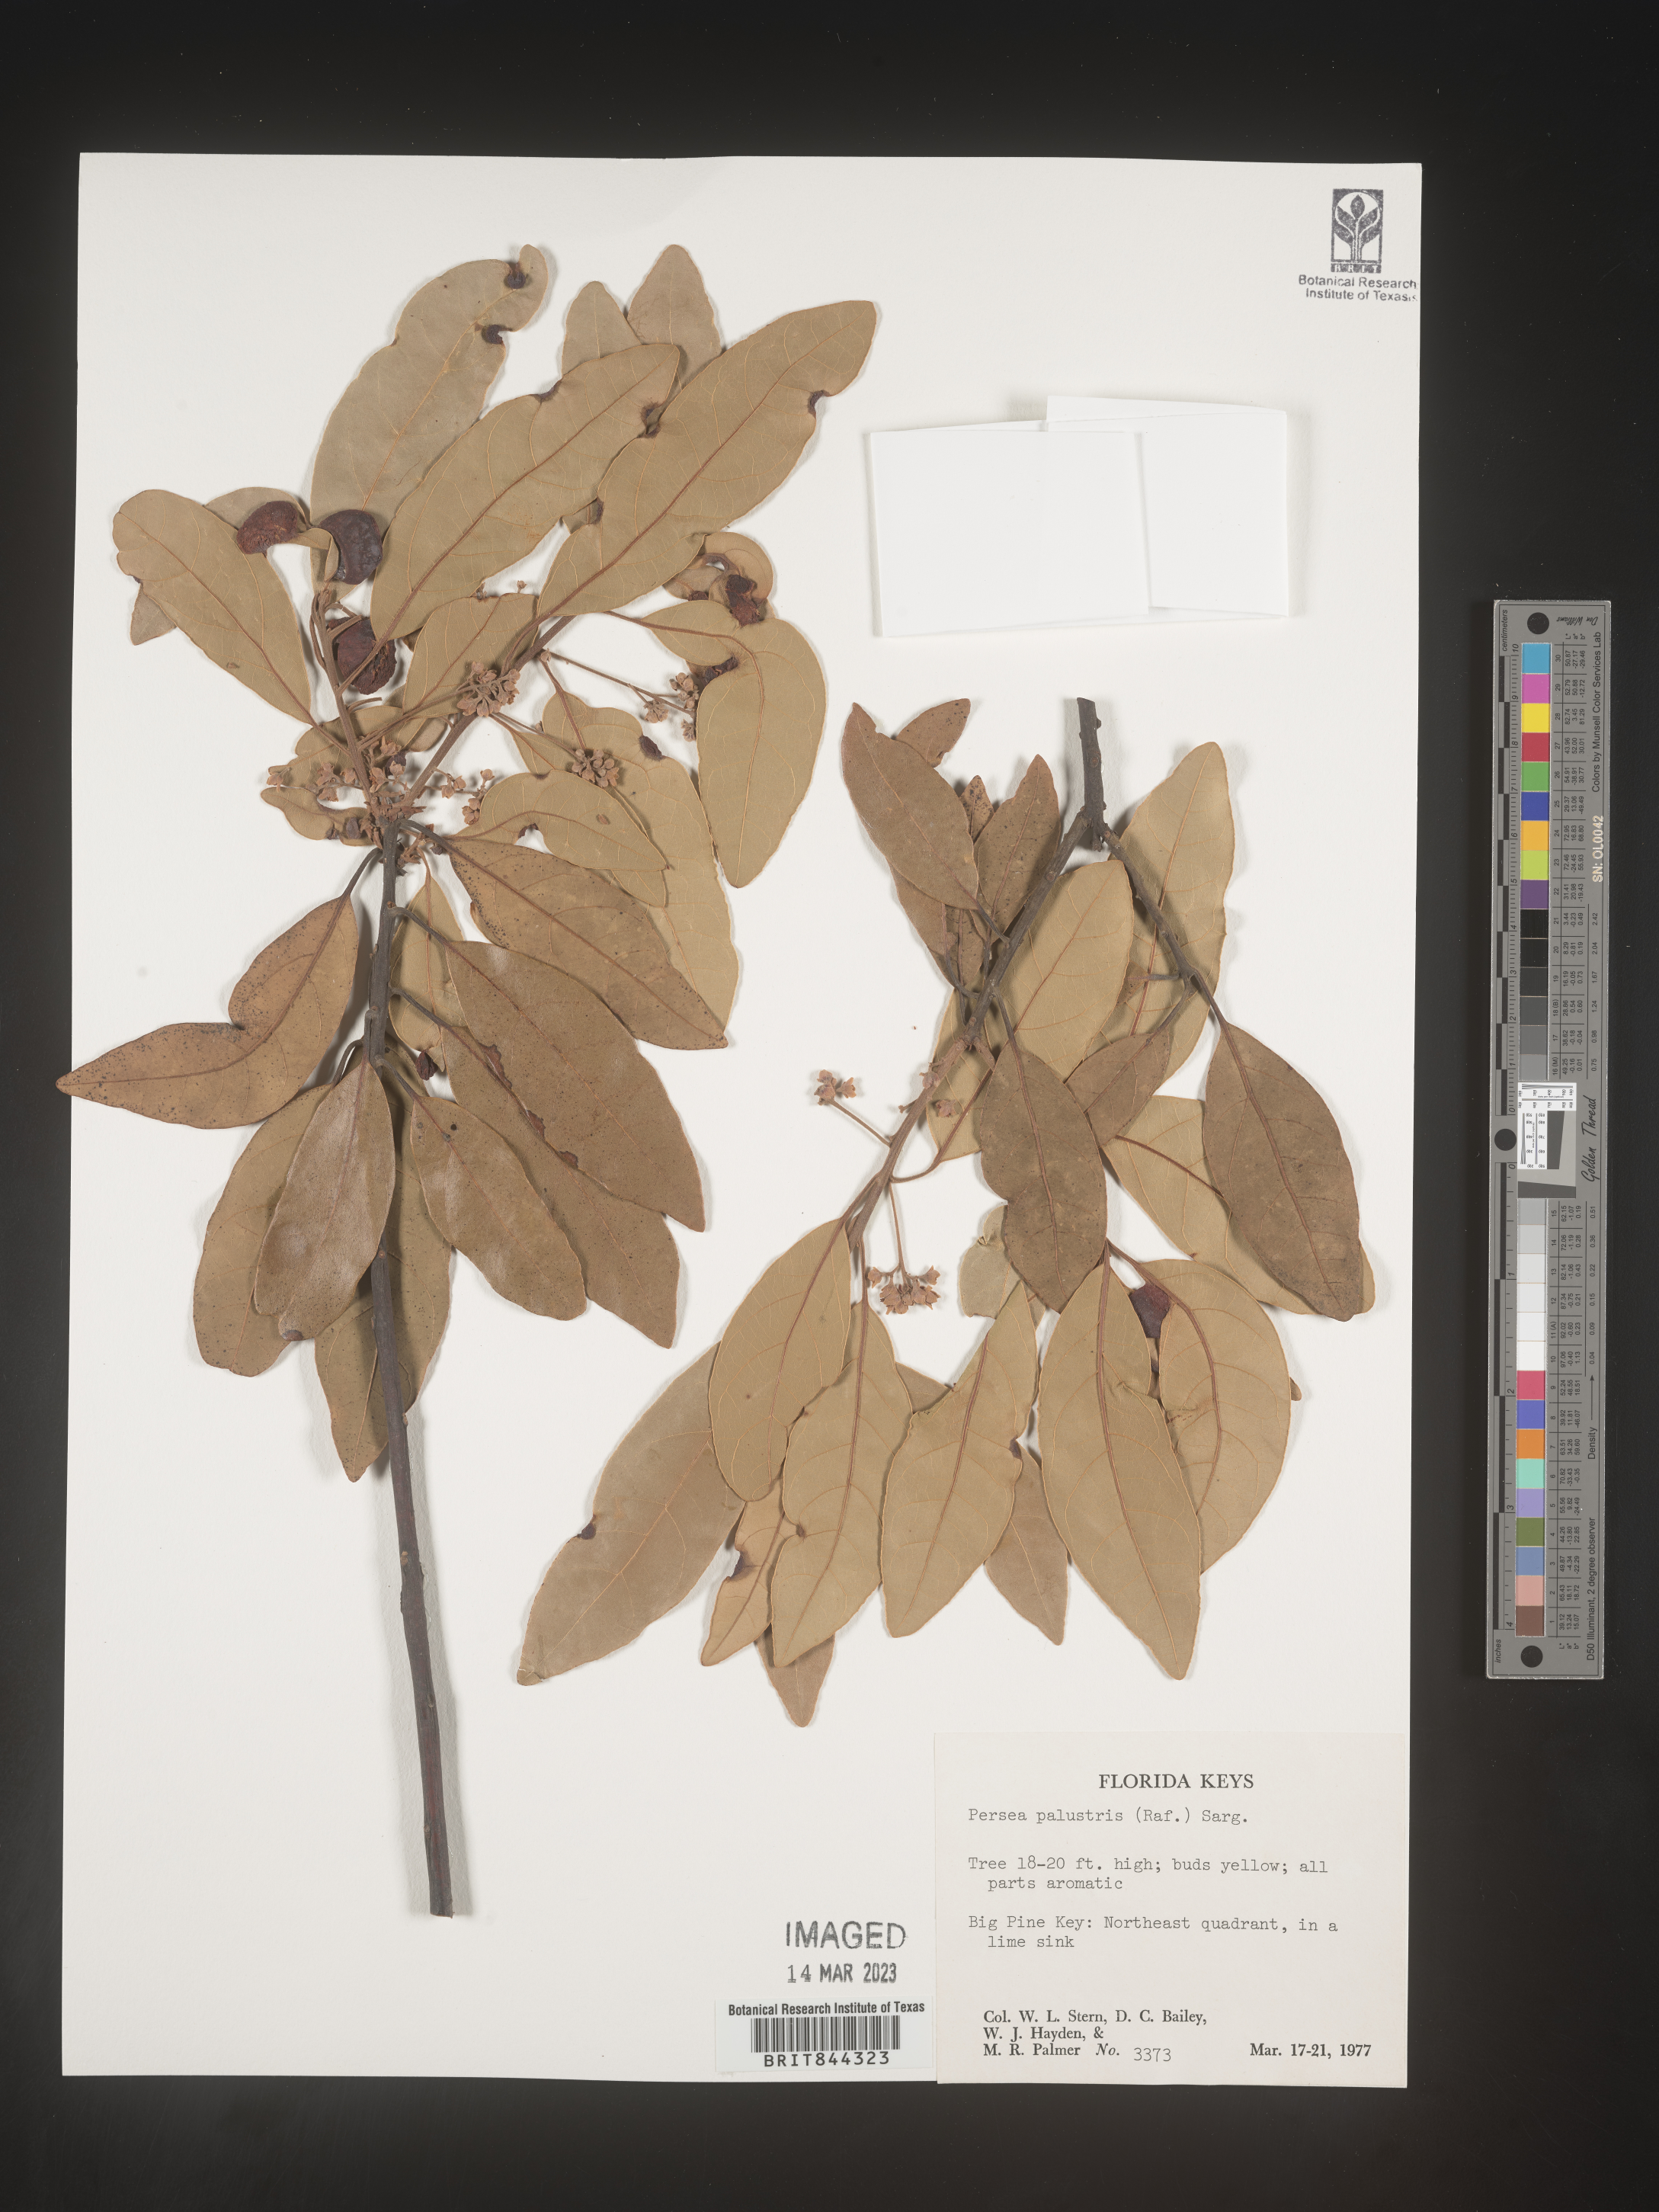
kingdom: Plantae
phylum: Tracheophyta
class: Magnoliopsida
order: Laurales
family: Lauraceae
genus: Persea
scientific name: Persea palustris
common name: Swampbay
